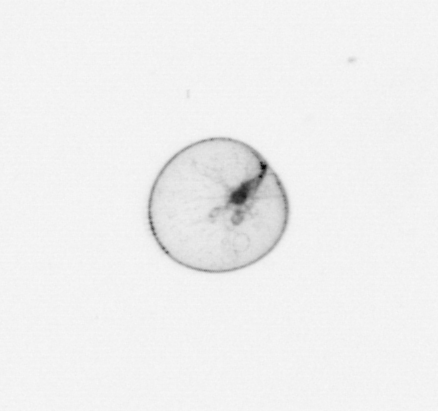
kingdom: Chromista
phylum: Myzozoa
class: Dinophyceae
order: Noctilucales
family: Noctilucaceae
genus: Noctiluca
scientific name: Noctiluca scintillans
